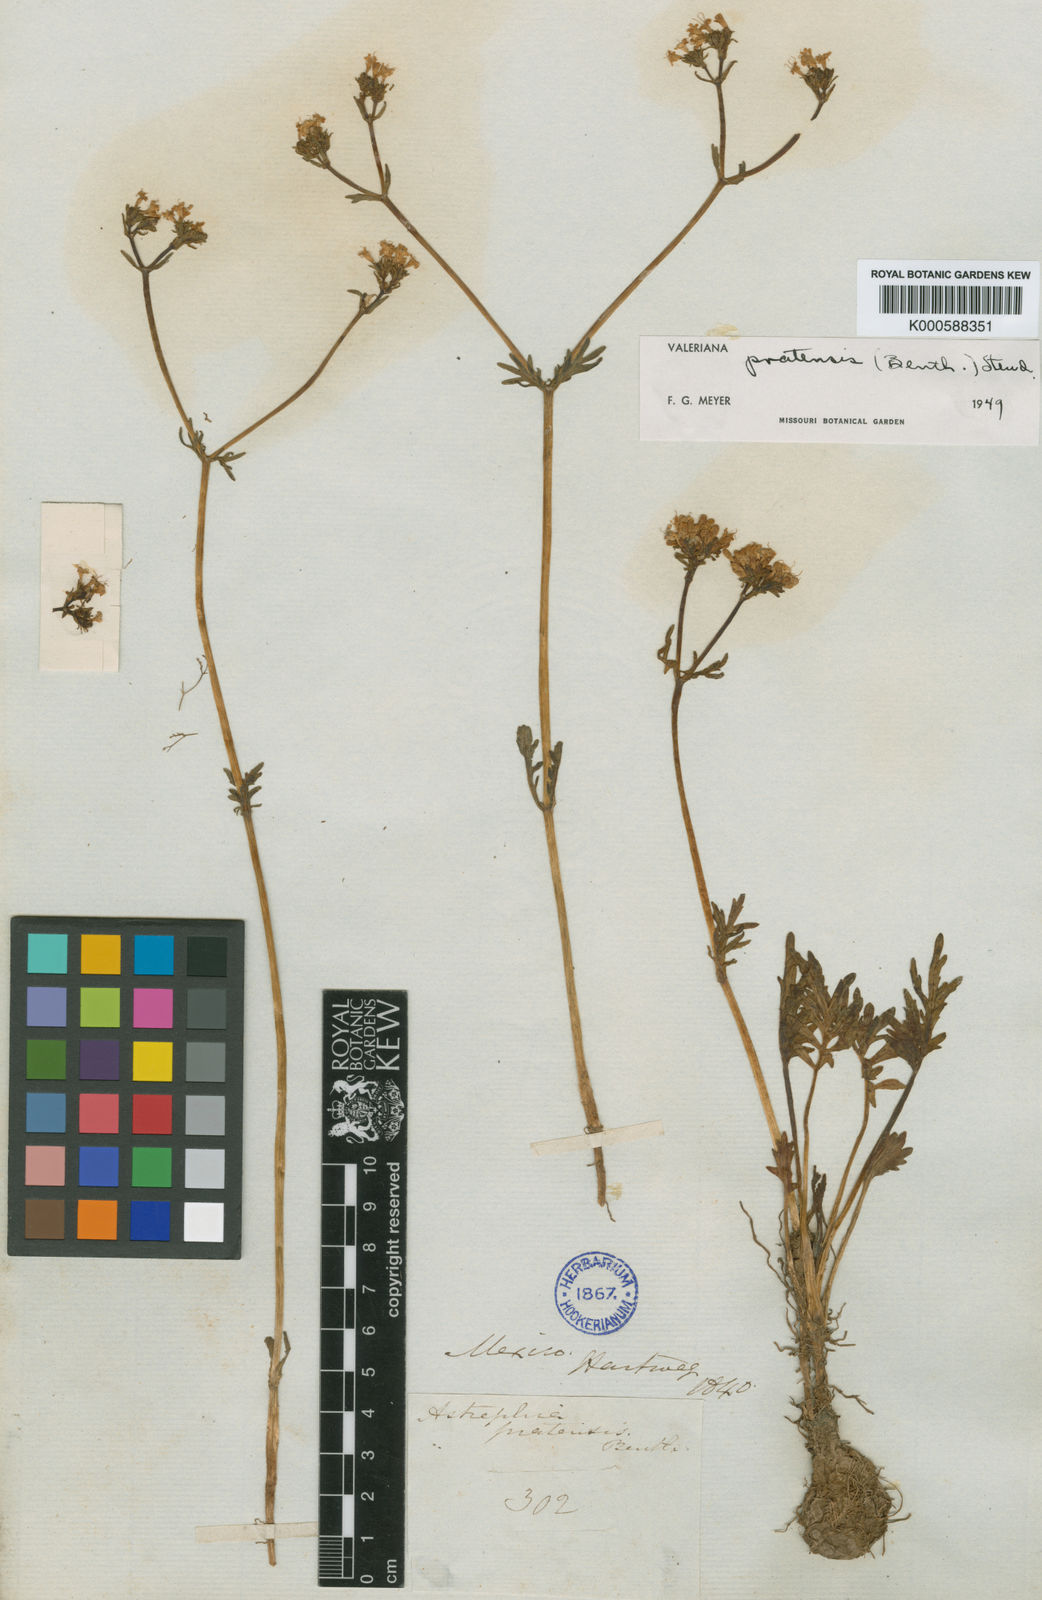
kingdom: Plantae
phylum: Tracheophyta
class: Magnoliopsida
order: Dipsacales
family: Caprifoliaceae
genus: Valeriana
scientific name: Valeriana galeottiana
